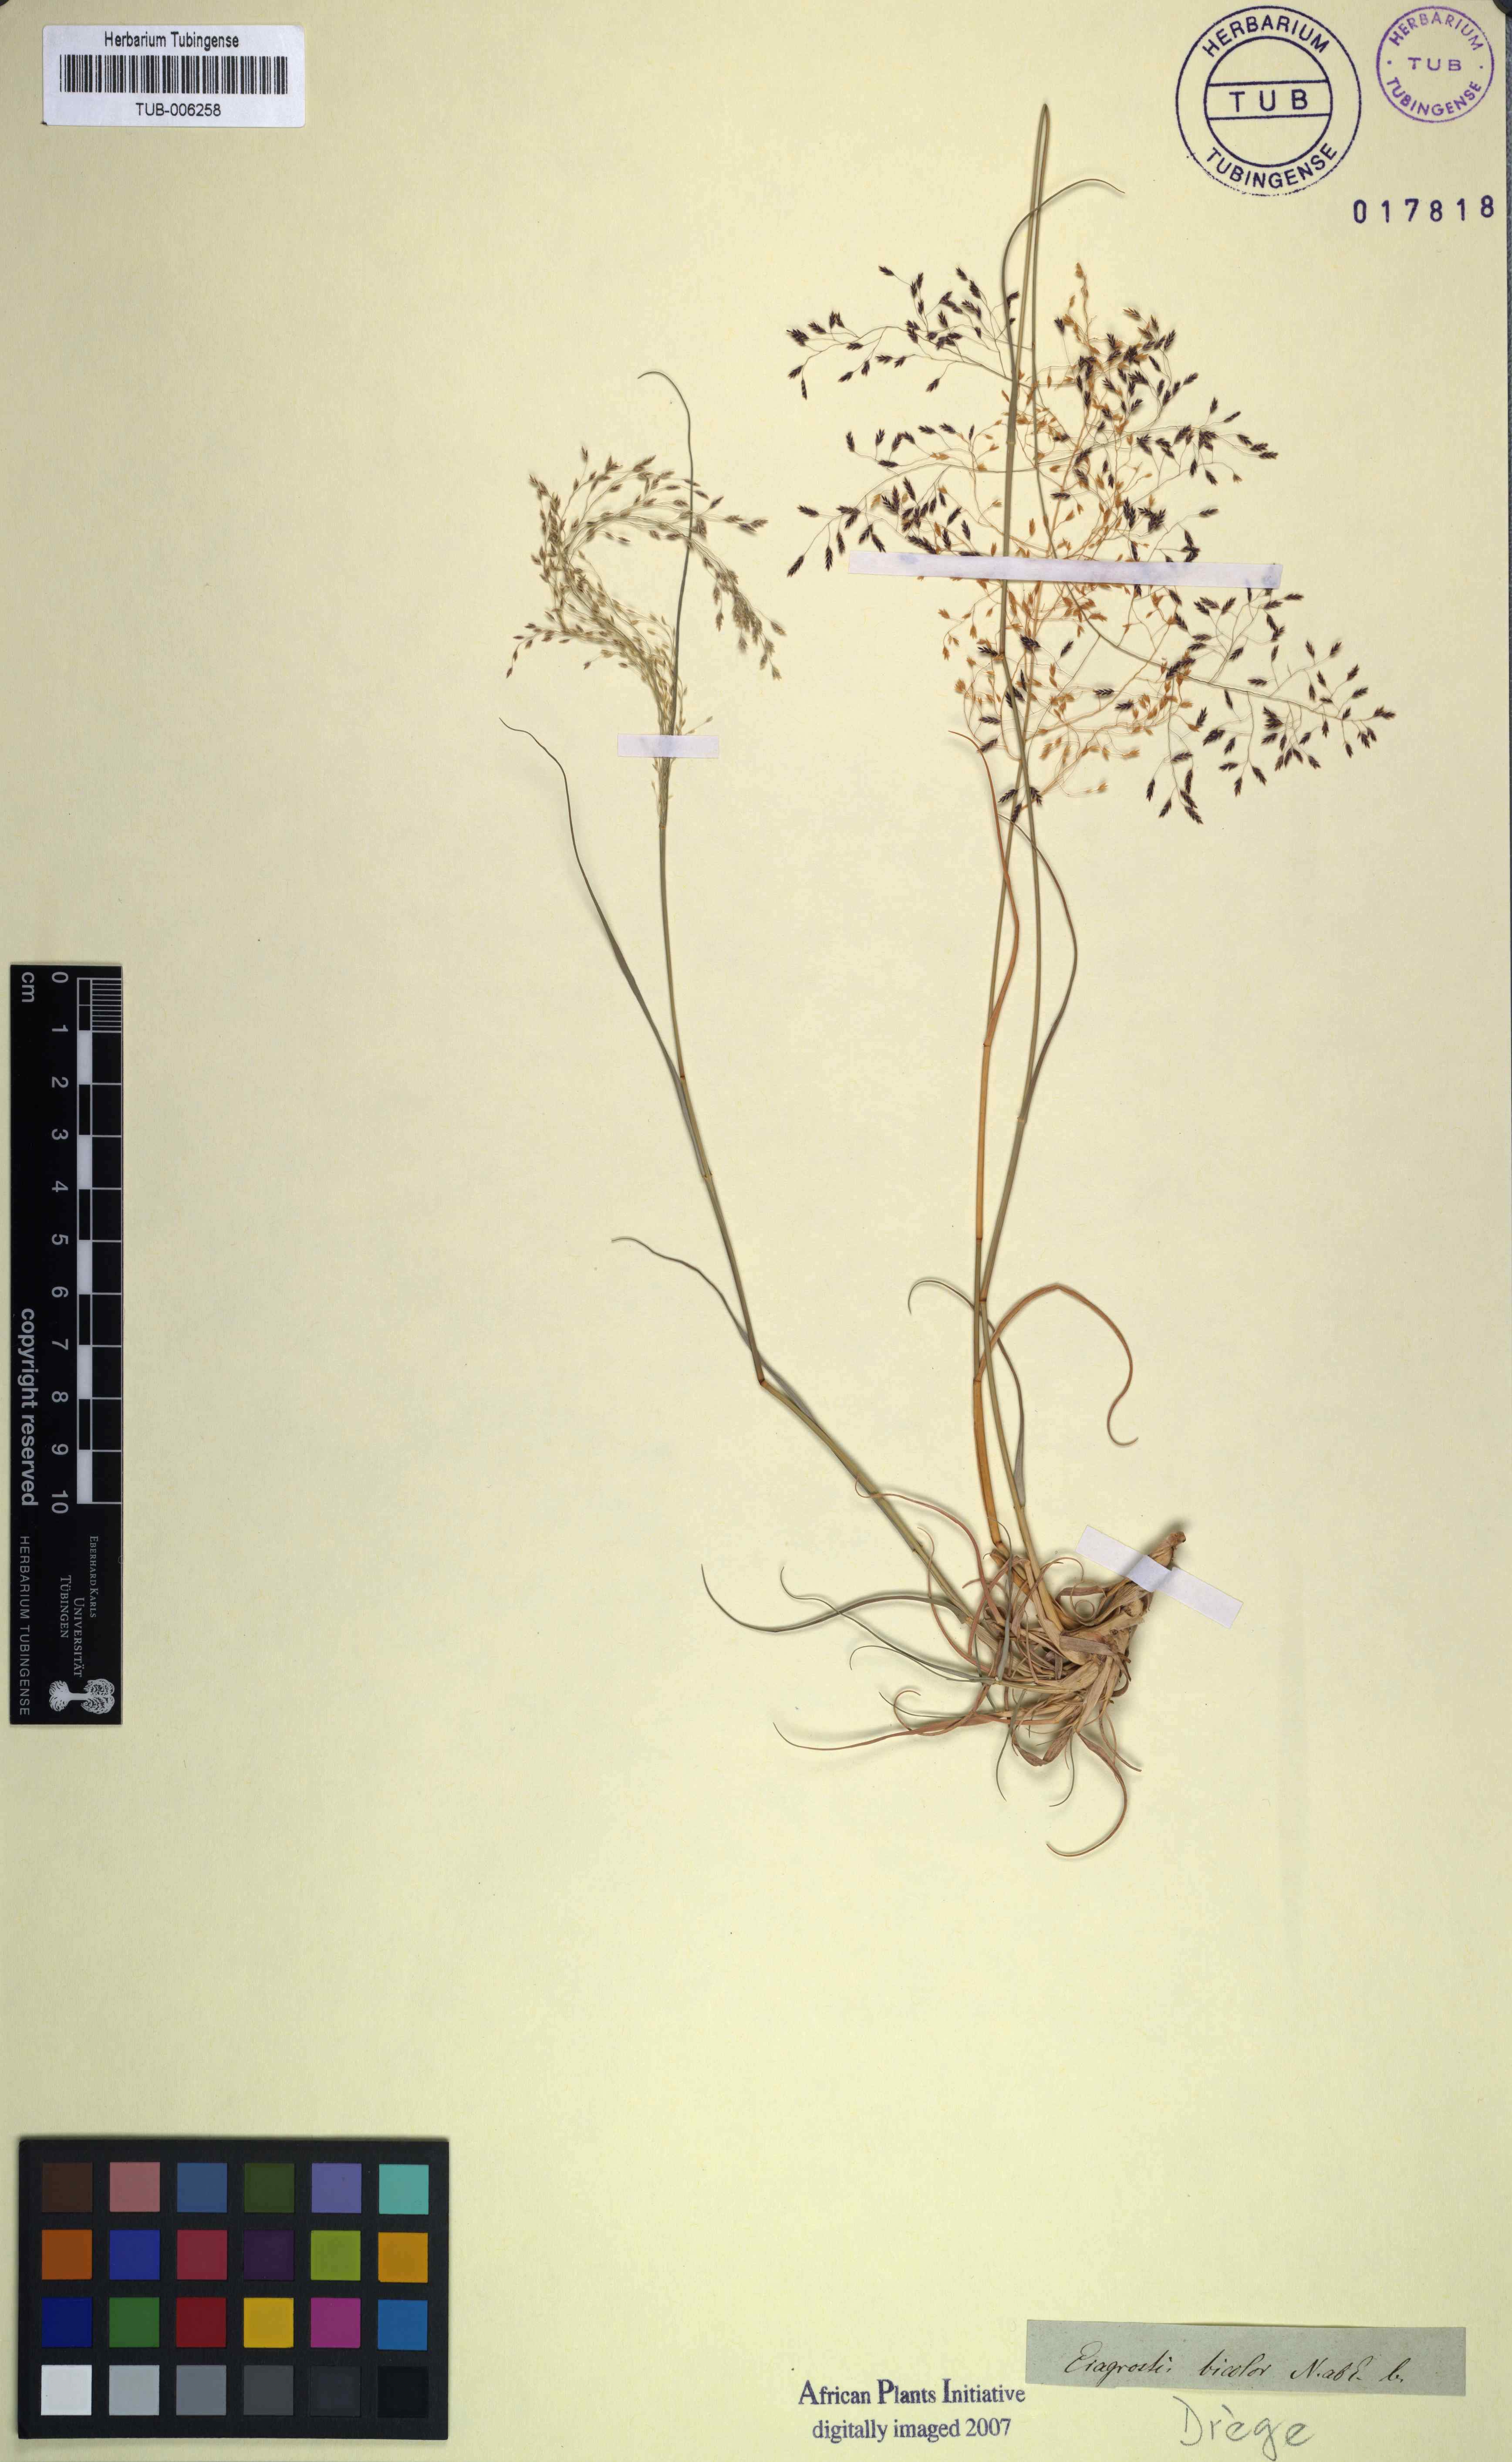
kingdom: Plantae
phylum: Tracheophyta
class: Liliopsida
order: Poales
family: Poaceae
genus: Eragrostis
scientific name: Eragrostis bicolor
